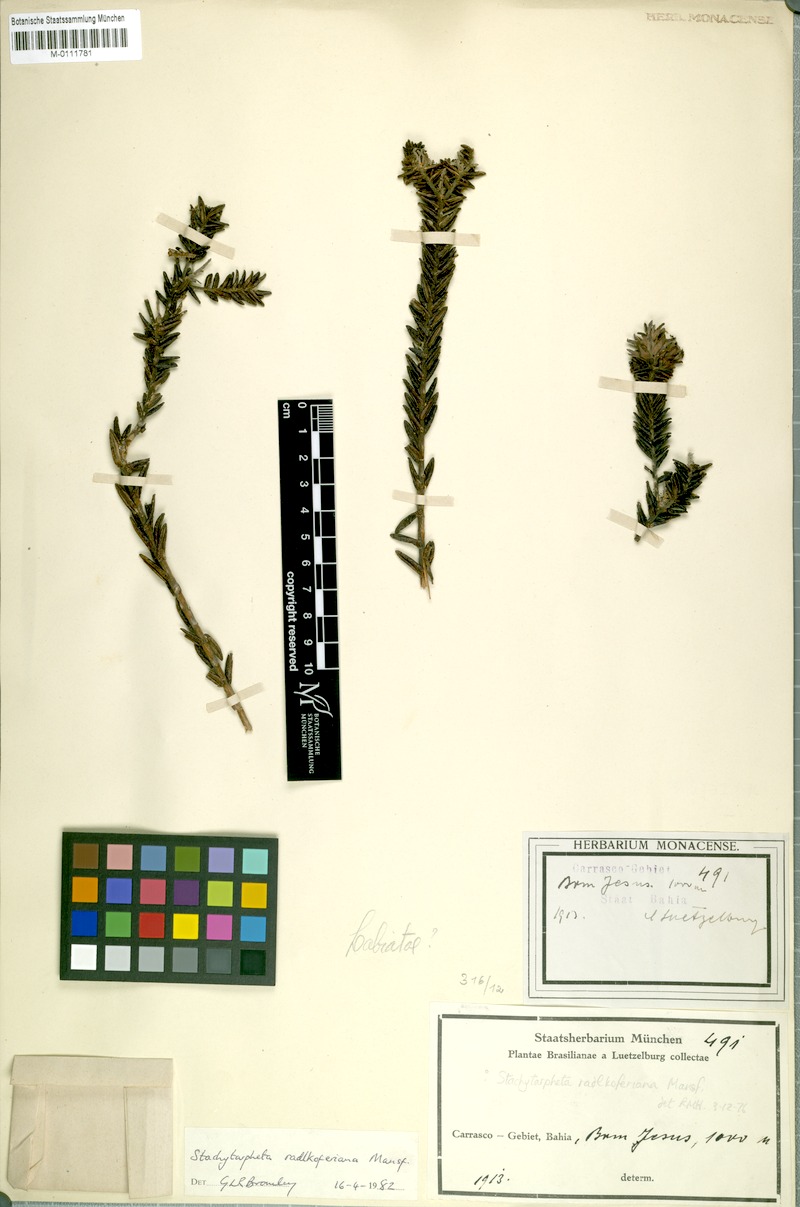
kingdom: Plantae
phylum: Tracheophyta
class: Magnoliopsida
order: Lamiales
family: Verbenaceae
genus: Stachytarpheta
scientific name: Stachytarpheta radlkoferiana
